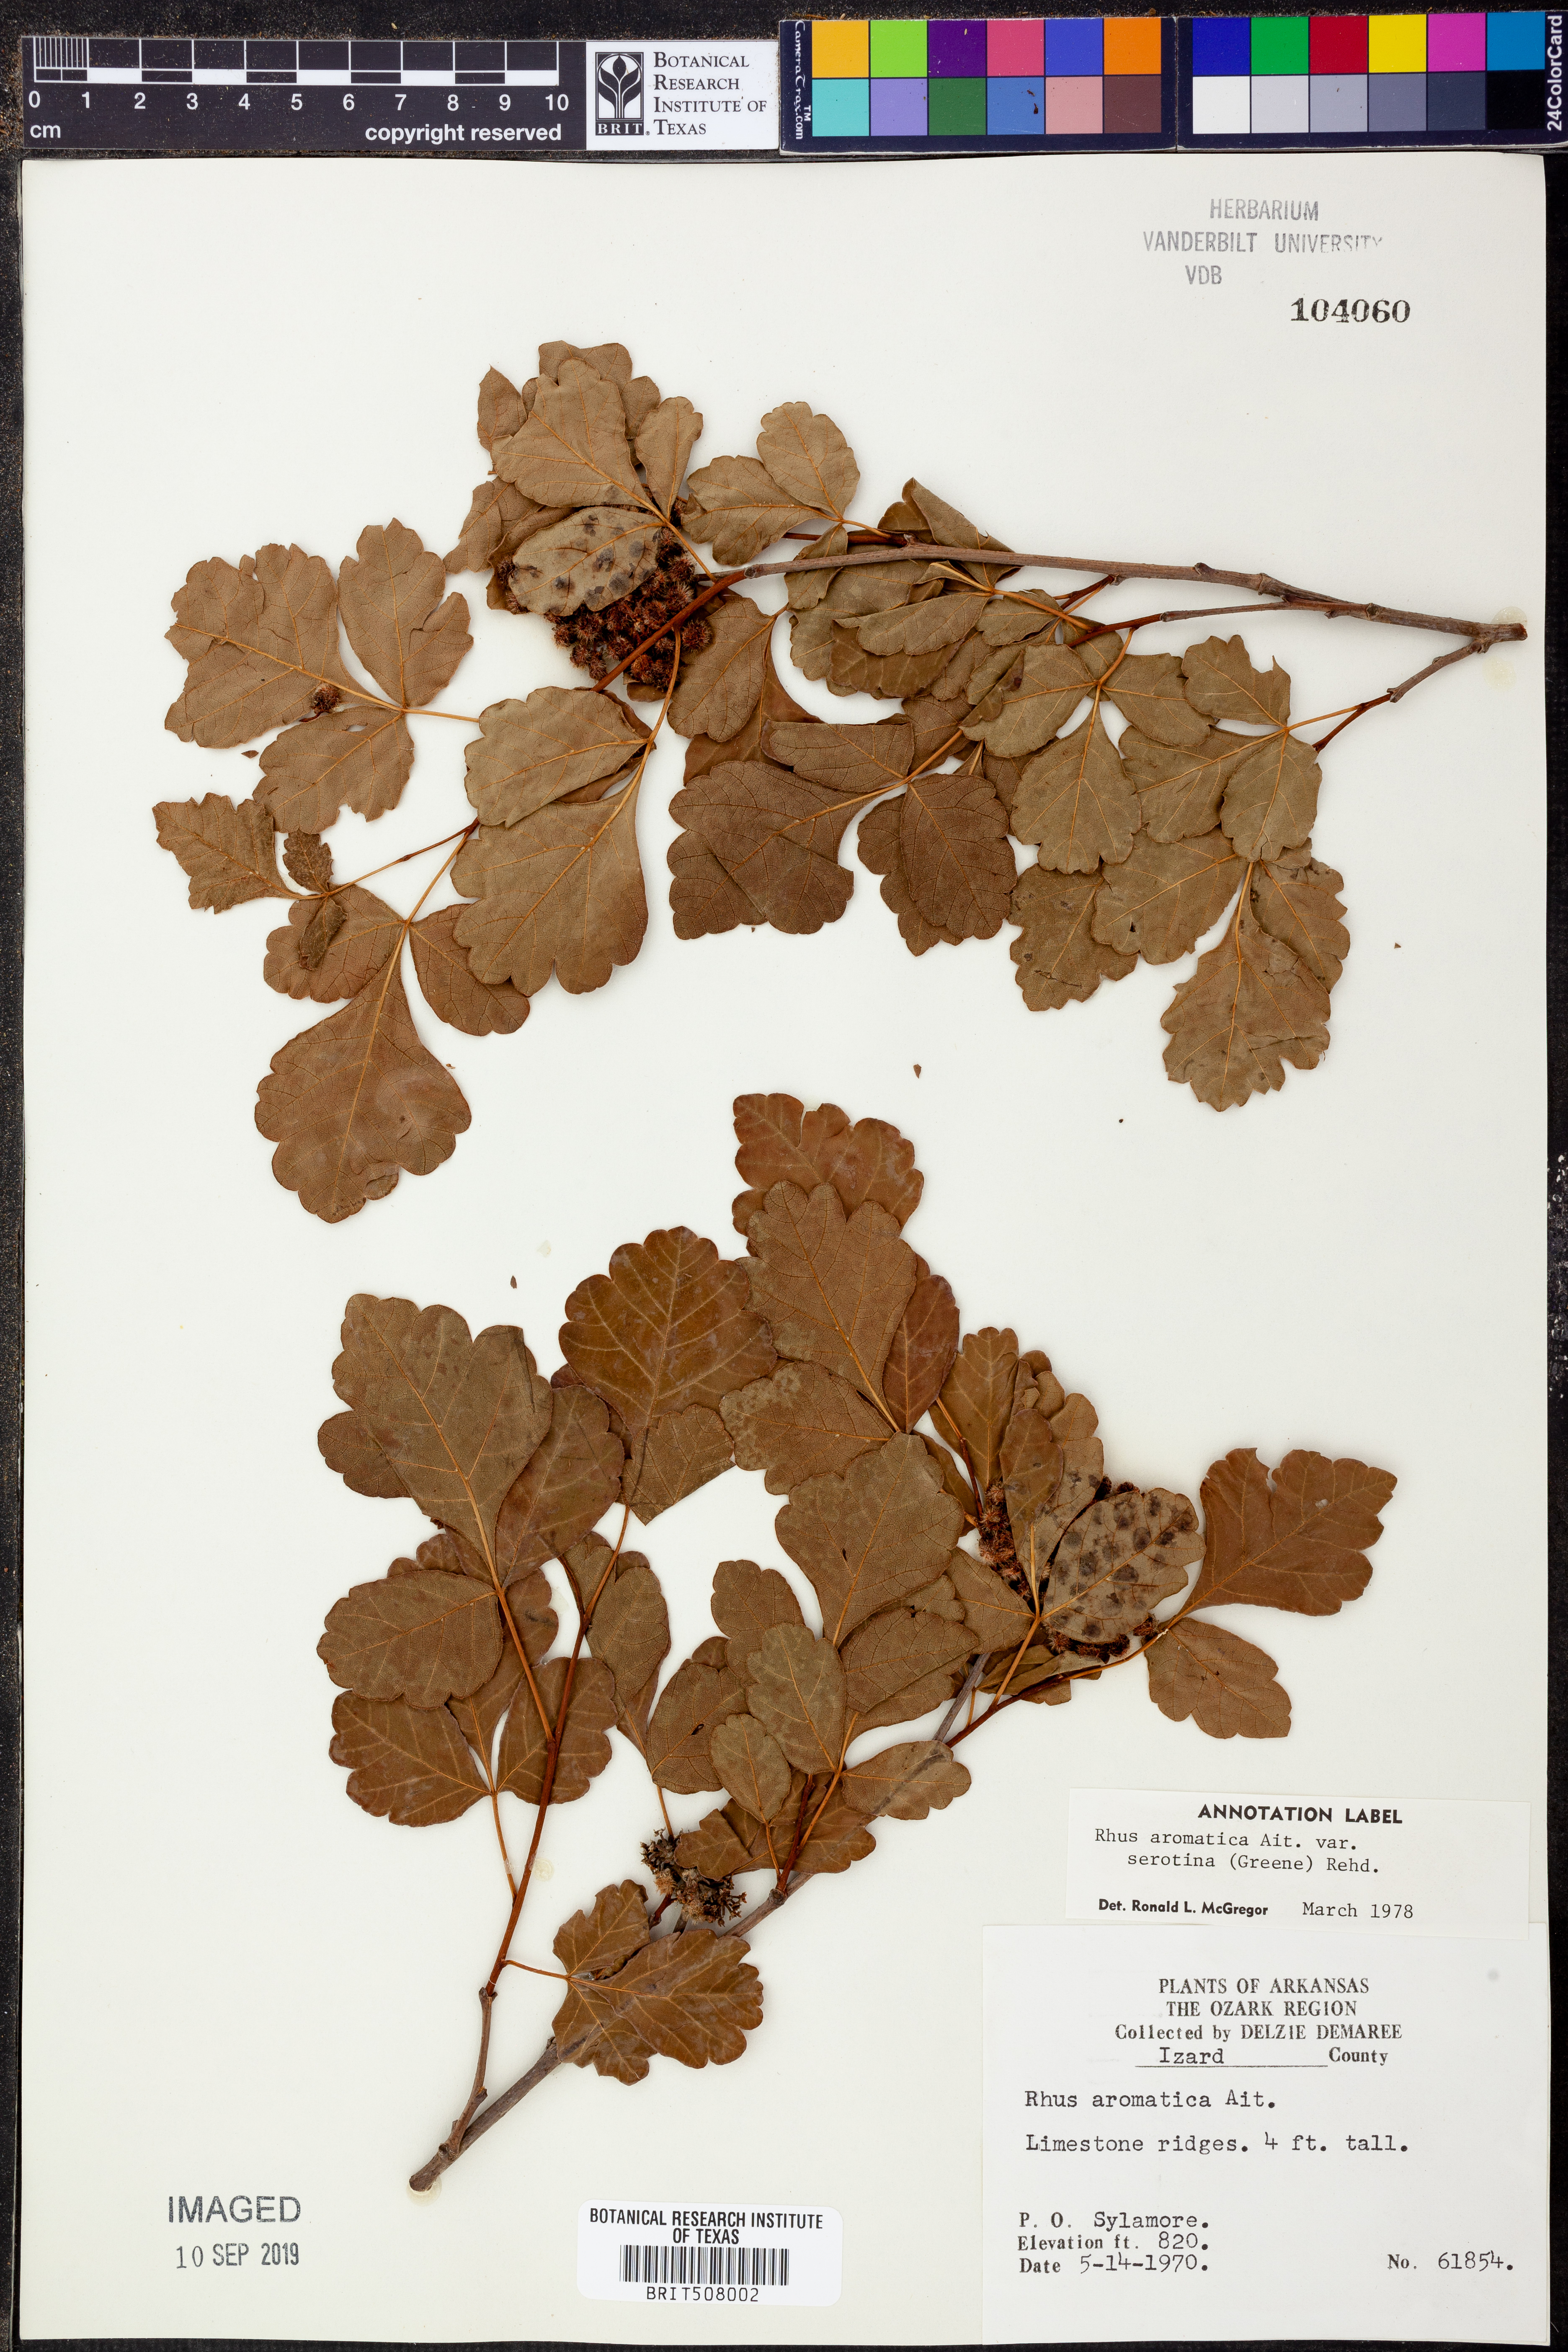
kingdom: Plantae
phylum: Tracheophyta
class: Magnoliopsida
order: Sapindales
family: Anacardiaceae
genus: Rhus
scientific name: Rhus aromatica
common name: Aromatic sumac
